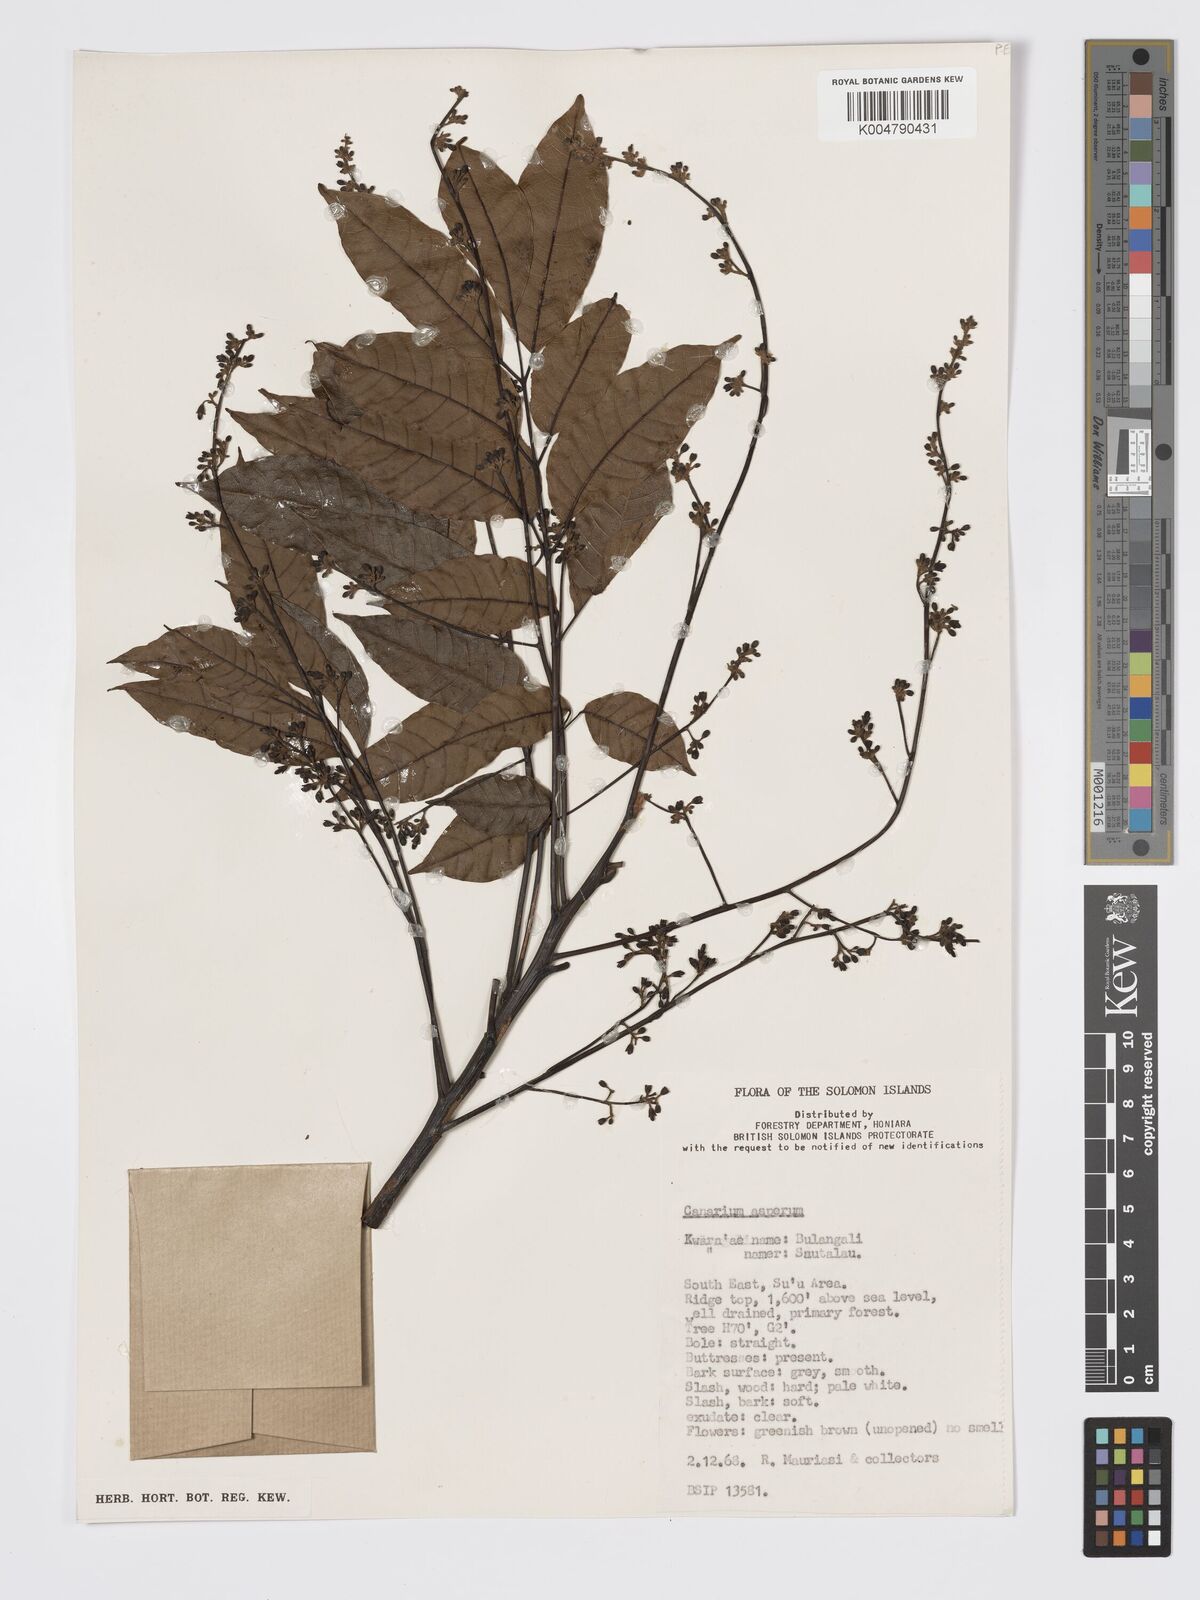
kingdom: Plantae
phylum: Tracheophyta
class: Magnoliopsida
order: Sapindales
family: Burseraceae
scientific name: Burseraceae
